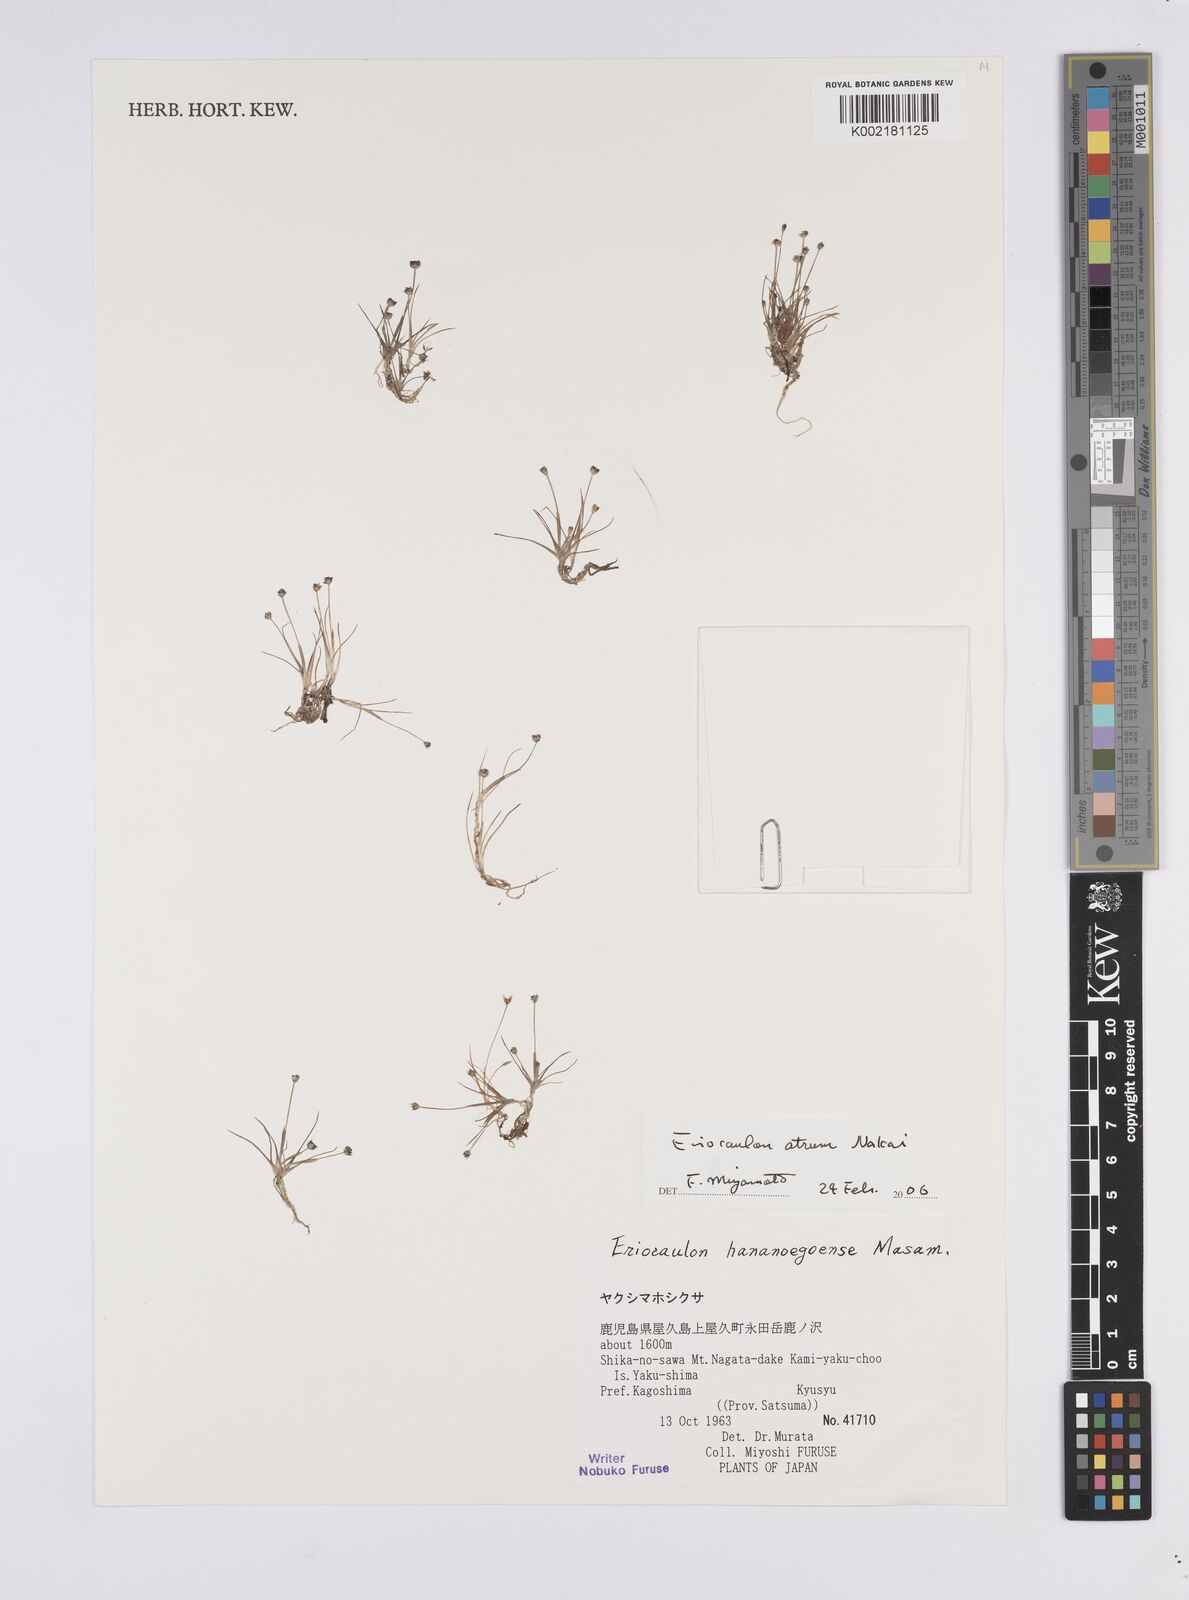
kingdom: Plantae
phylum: Tracheophyta
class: Liliopsida
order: Poales
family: Eriocaulaceae
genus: Eriocaulon
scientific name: Eriocaulon atrum
